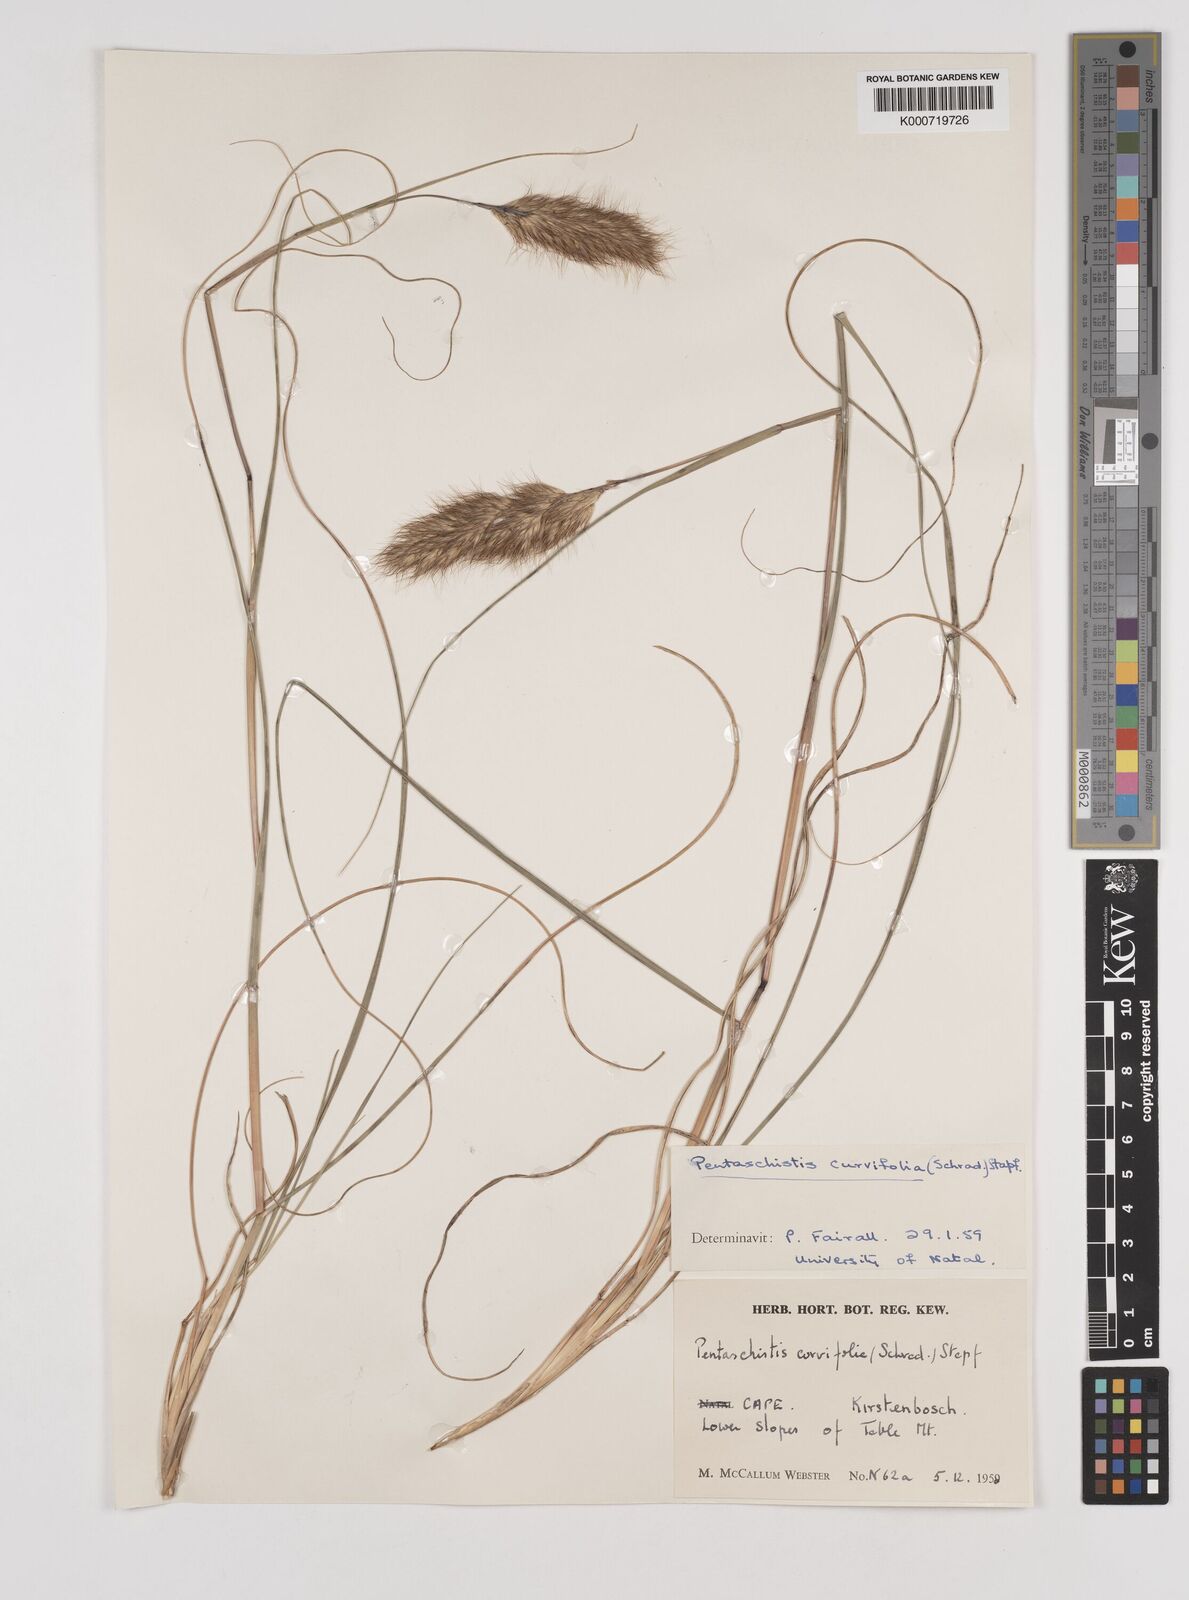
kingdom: Plantae
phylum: Tracheophyta
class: Liliopsida
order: Poales
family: Poaceae
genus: Pentameris
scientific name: Pentameris curvifolia
